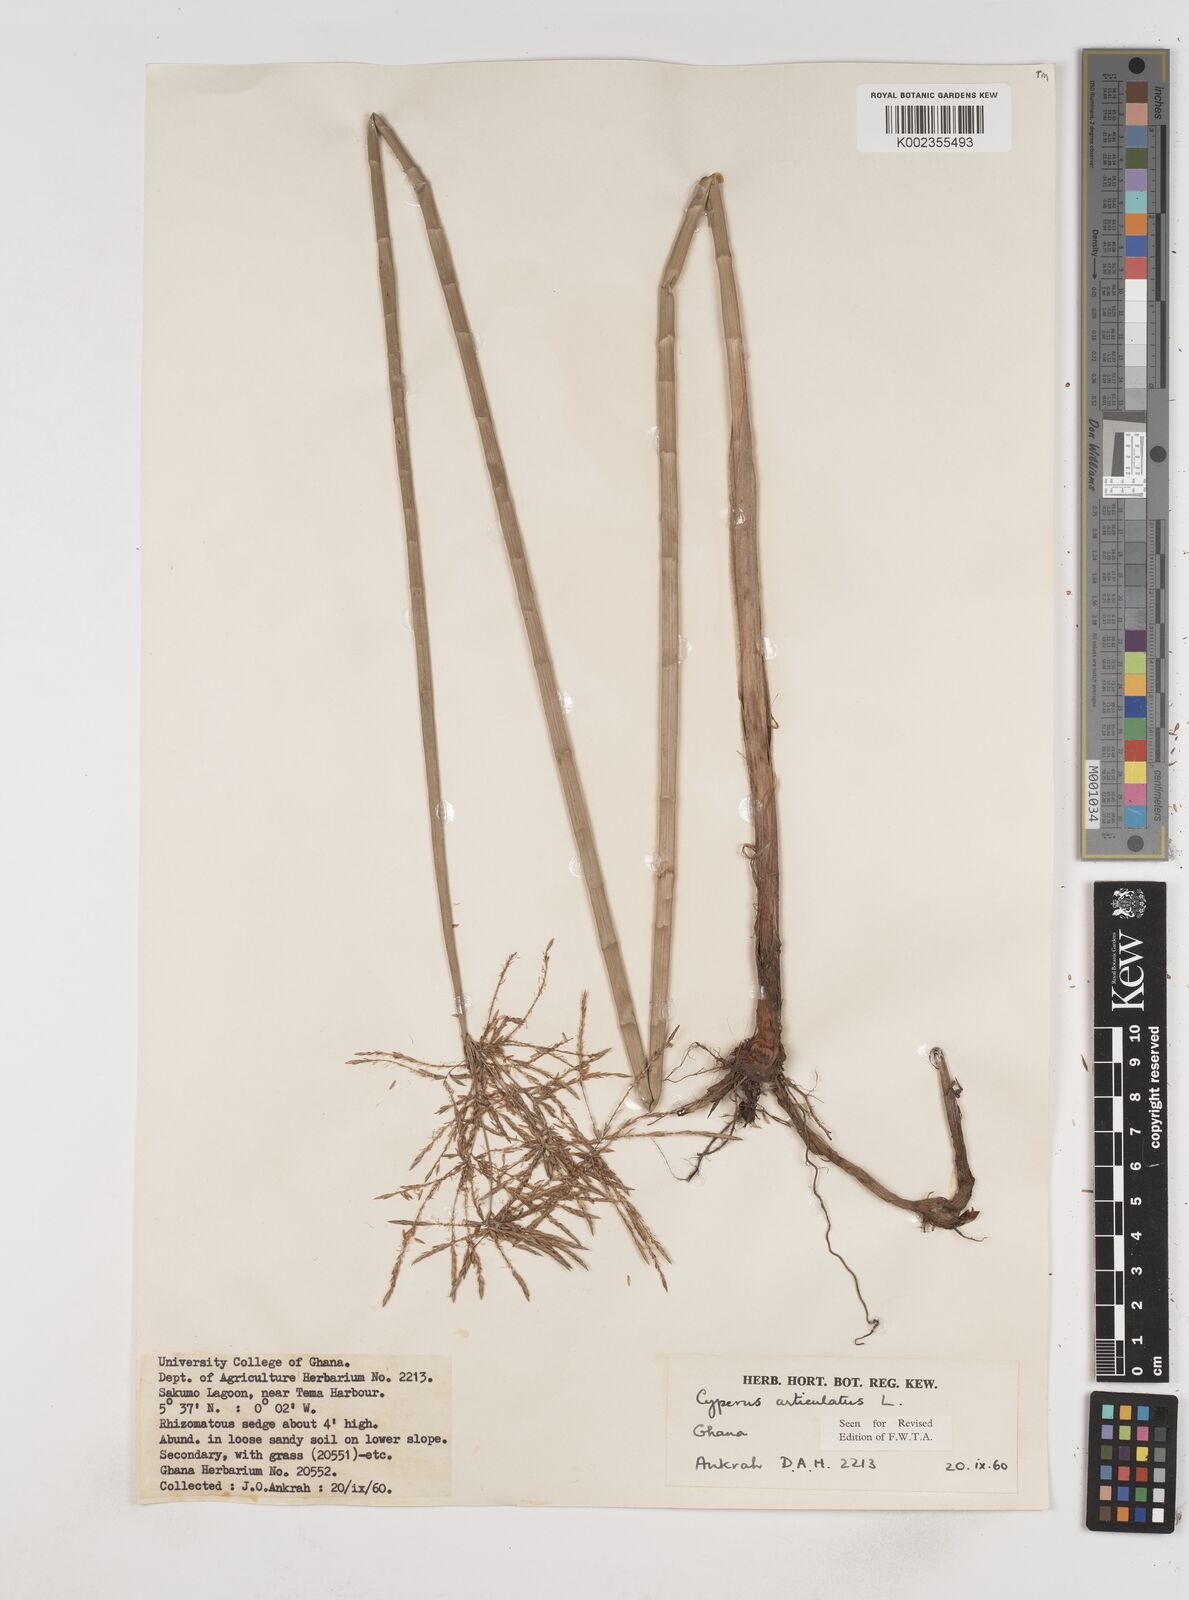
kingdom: Plantae
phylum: Tracheophyta
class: Liliopsida
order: Poales
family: Cyperaceae
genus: Cyperus
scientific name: Cyperus articulatus
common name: Jointed flatsedge
